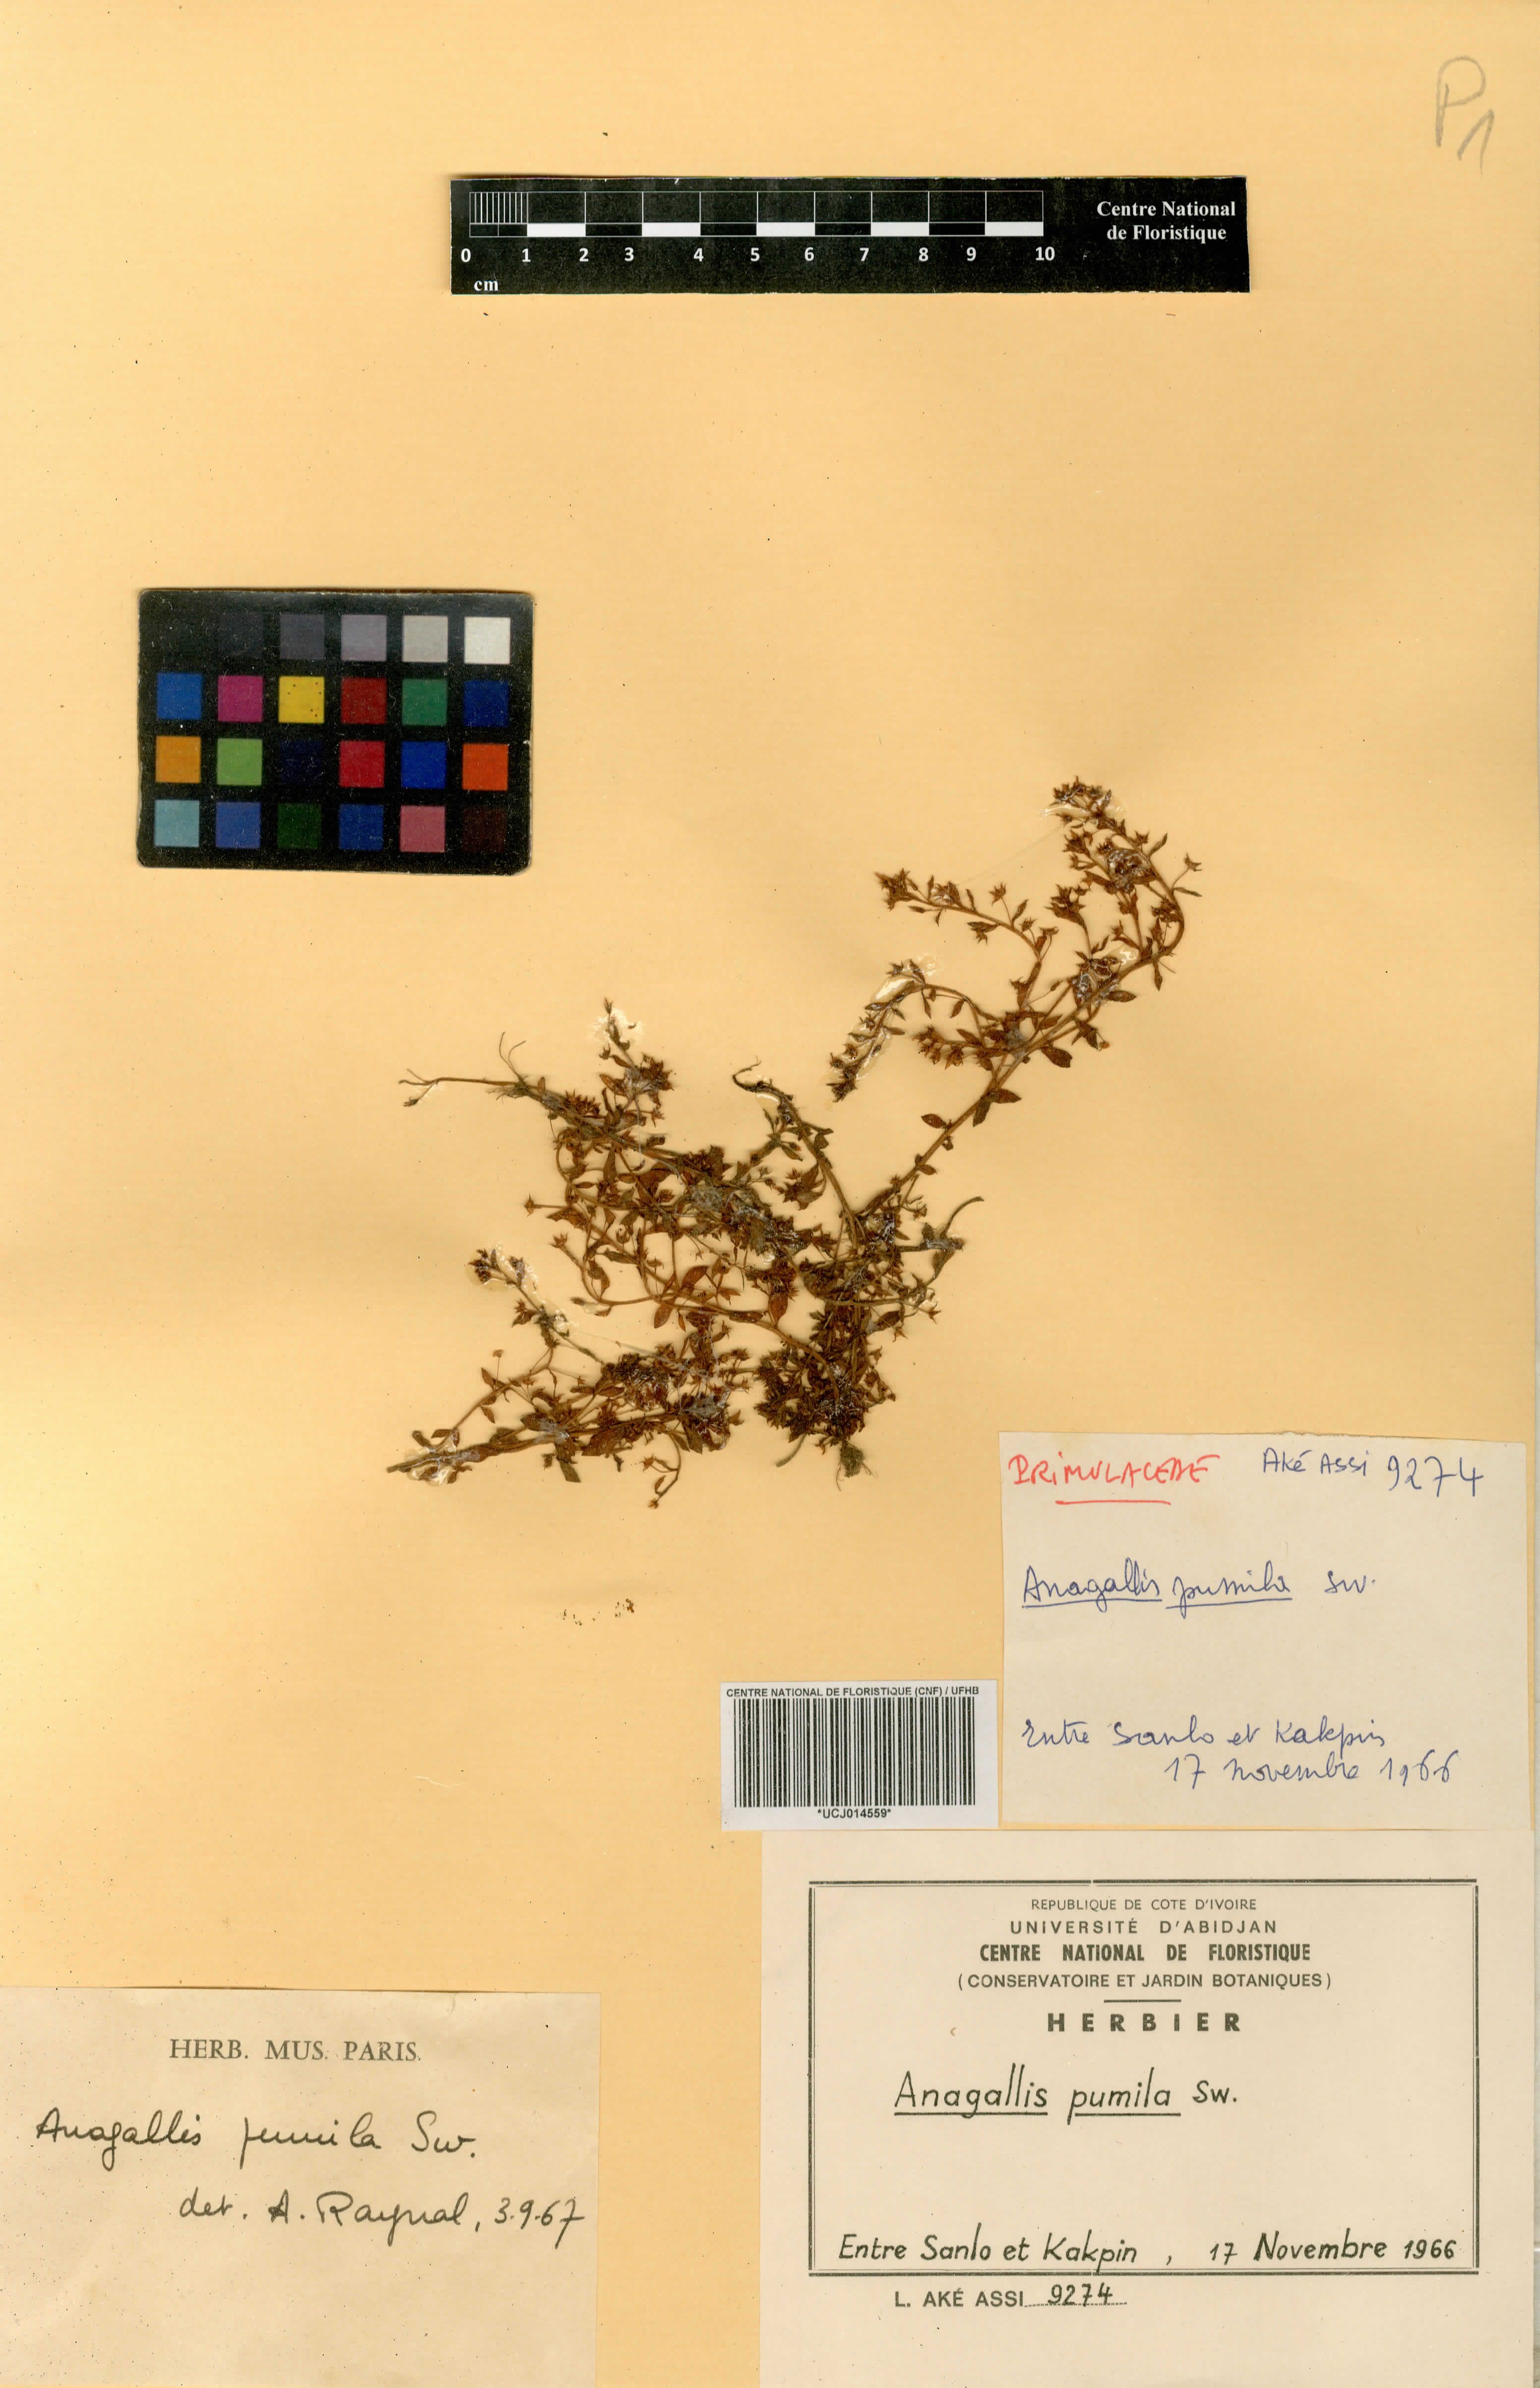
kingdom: Plantae
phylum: Tracheophyta
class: Magnoliopsida
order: Ericales
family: Primulaceae
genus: Lysimachia
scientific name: Lysimachia ovalis
